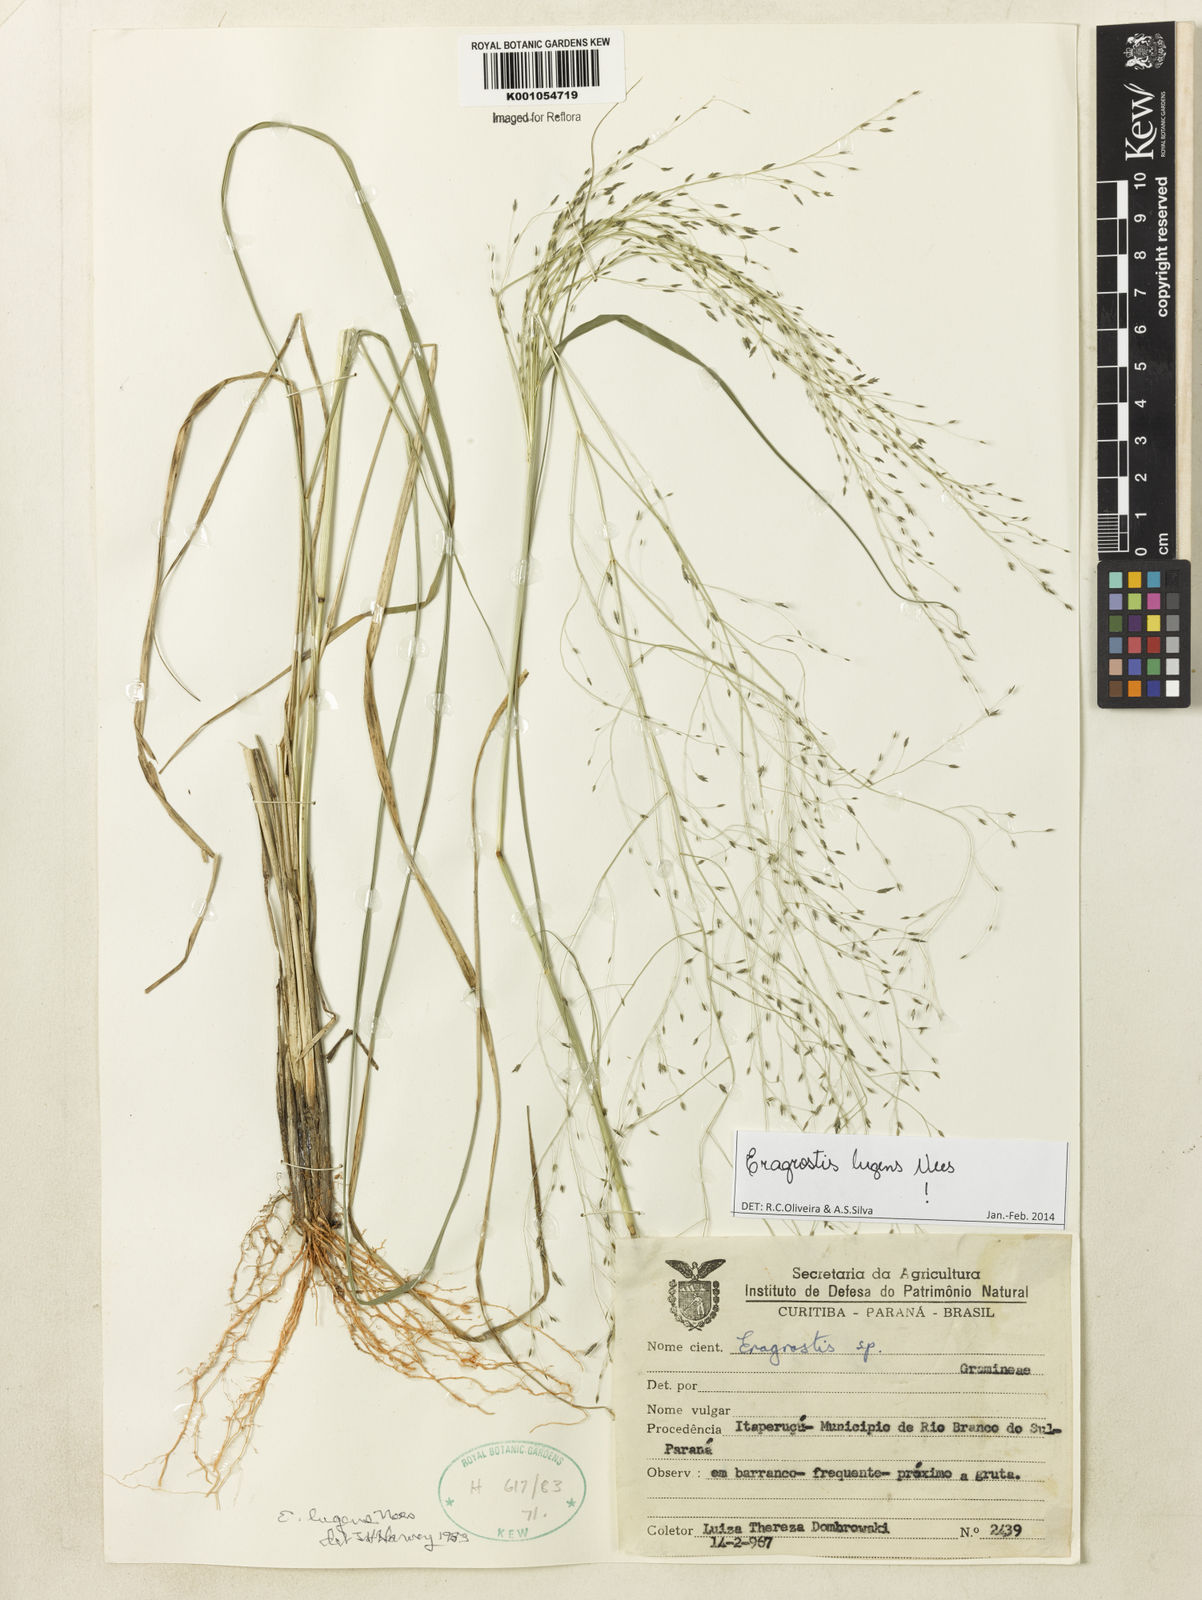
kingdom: Plantae
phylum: Tracheophyta
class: Liliopsida
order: Poales
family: Poaceae
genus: Eragrostis
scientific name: Eragrostis lugens
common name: Mourning love grass
